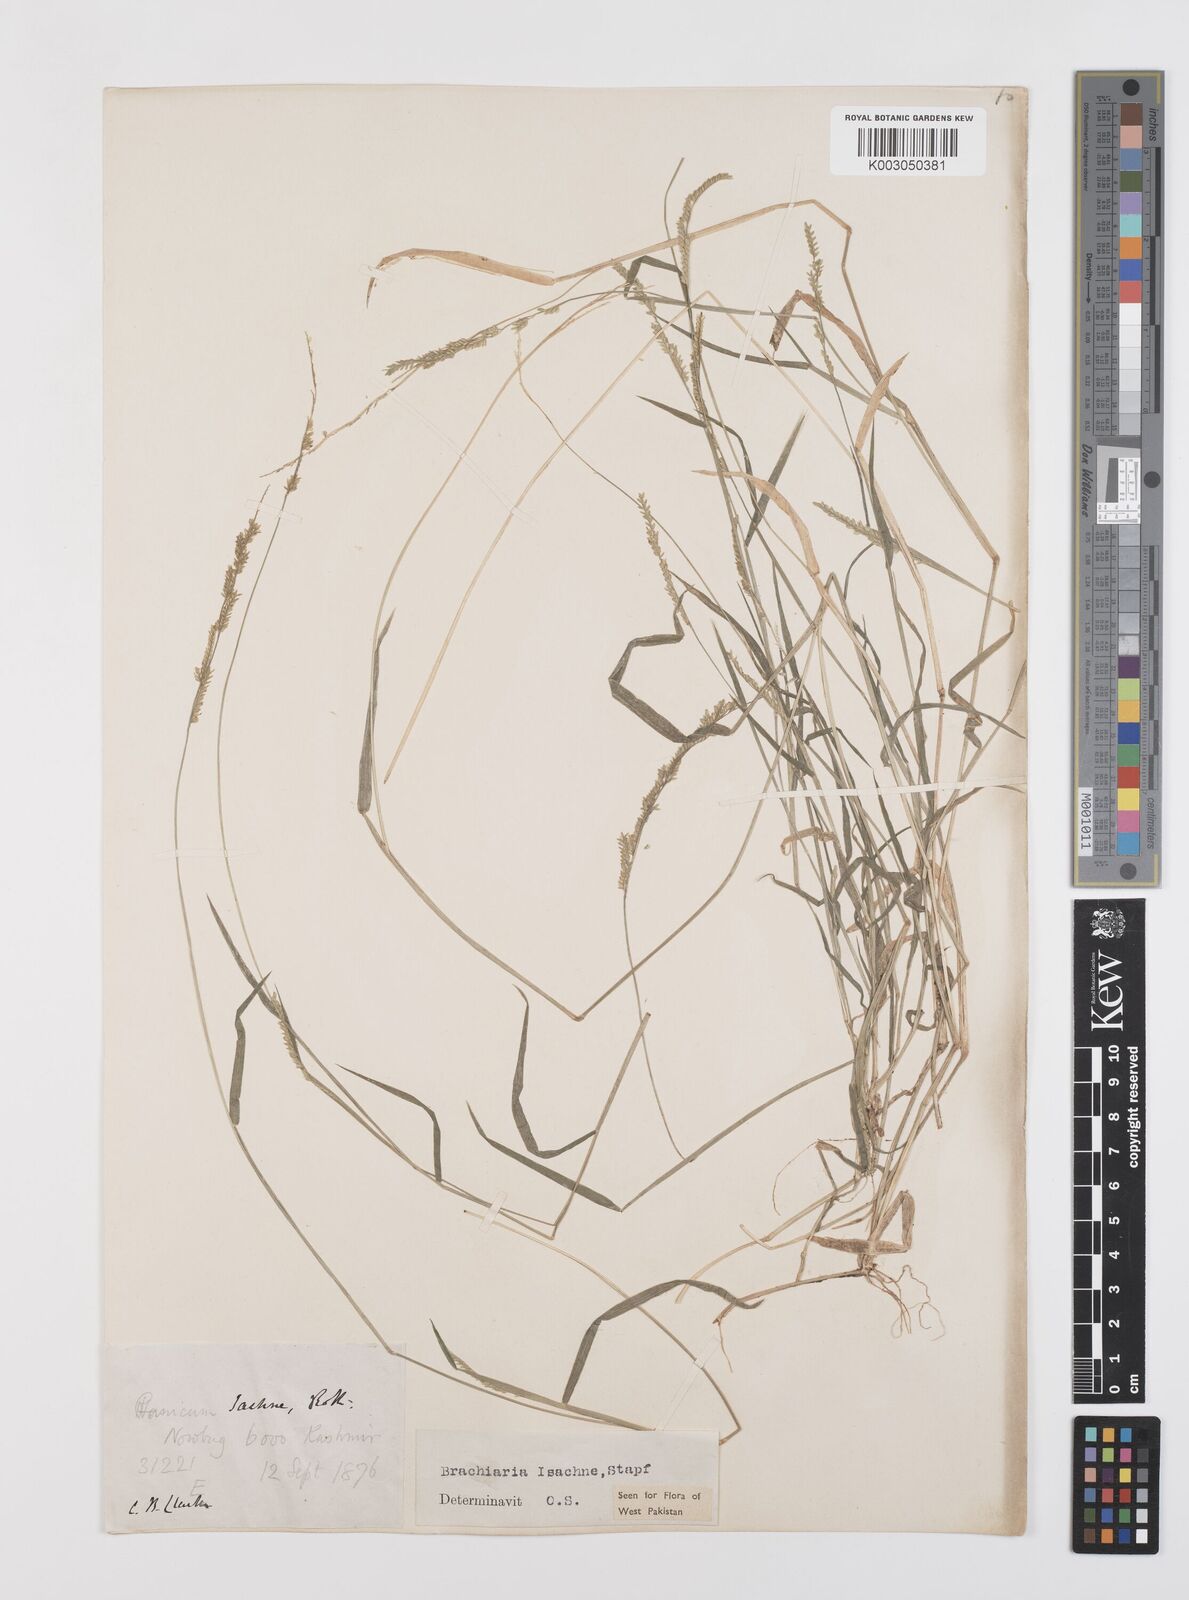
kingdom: Plantae
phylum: Tracheophyta
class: Liliopsida
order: Poales
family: Poaceae
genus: Moorochloa
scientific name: Moorochloa eruciformis
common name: Sweet signalgrass
